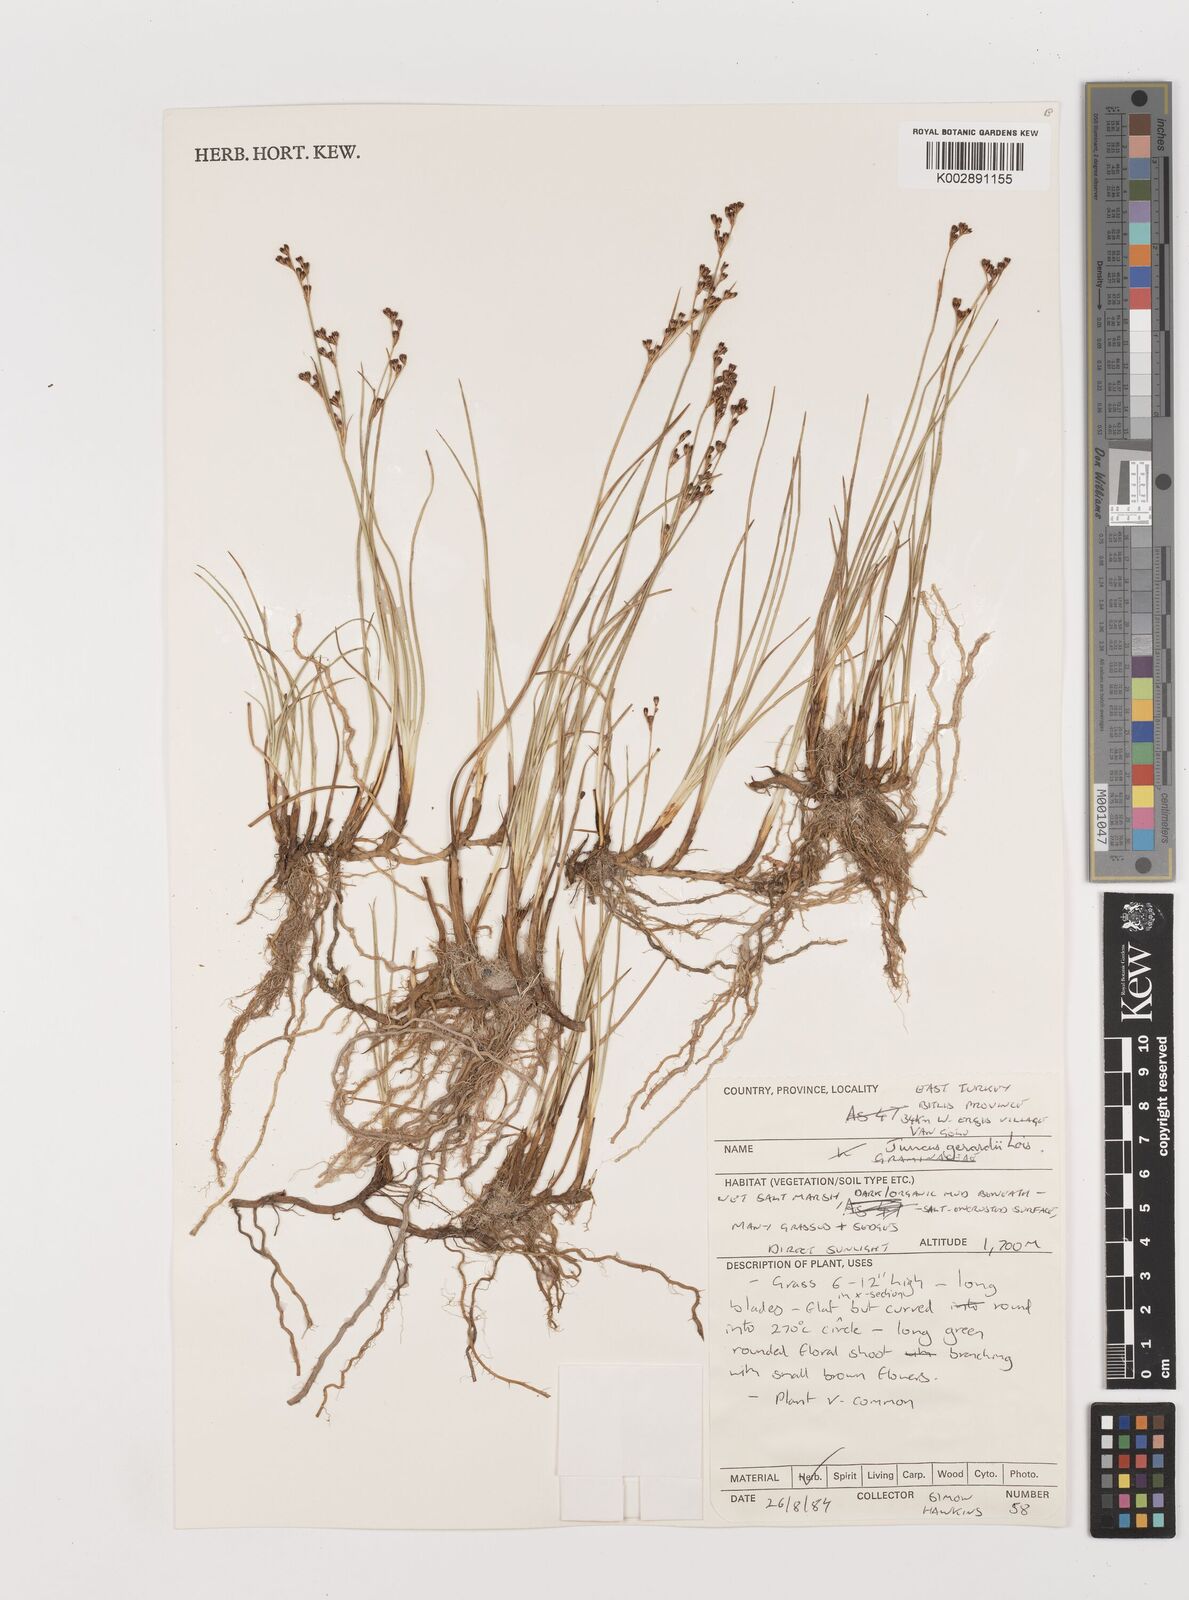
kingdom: Plantae
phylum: Tracheophyta
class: Liliopsida
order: Poales
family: Juncaceae
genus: Juncus
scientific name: Juncus gerardi
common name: Saltmarsh rush
